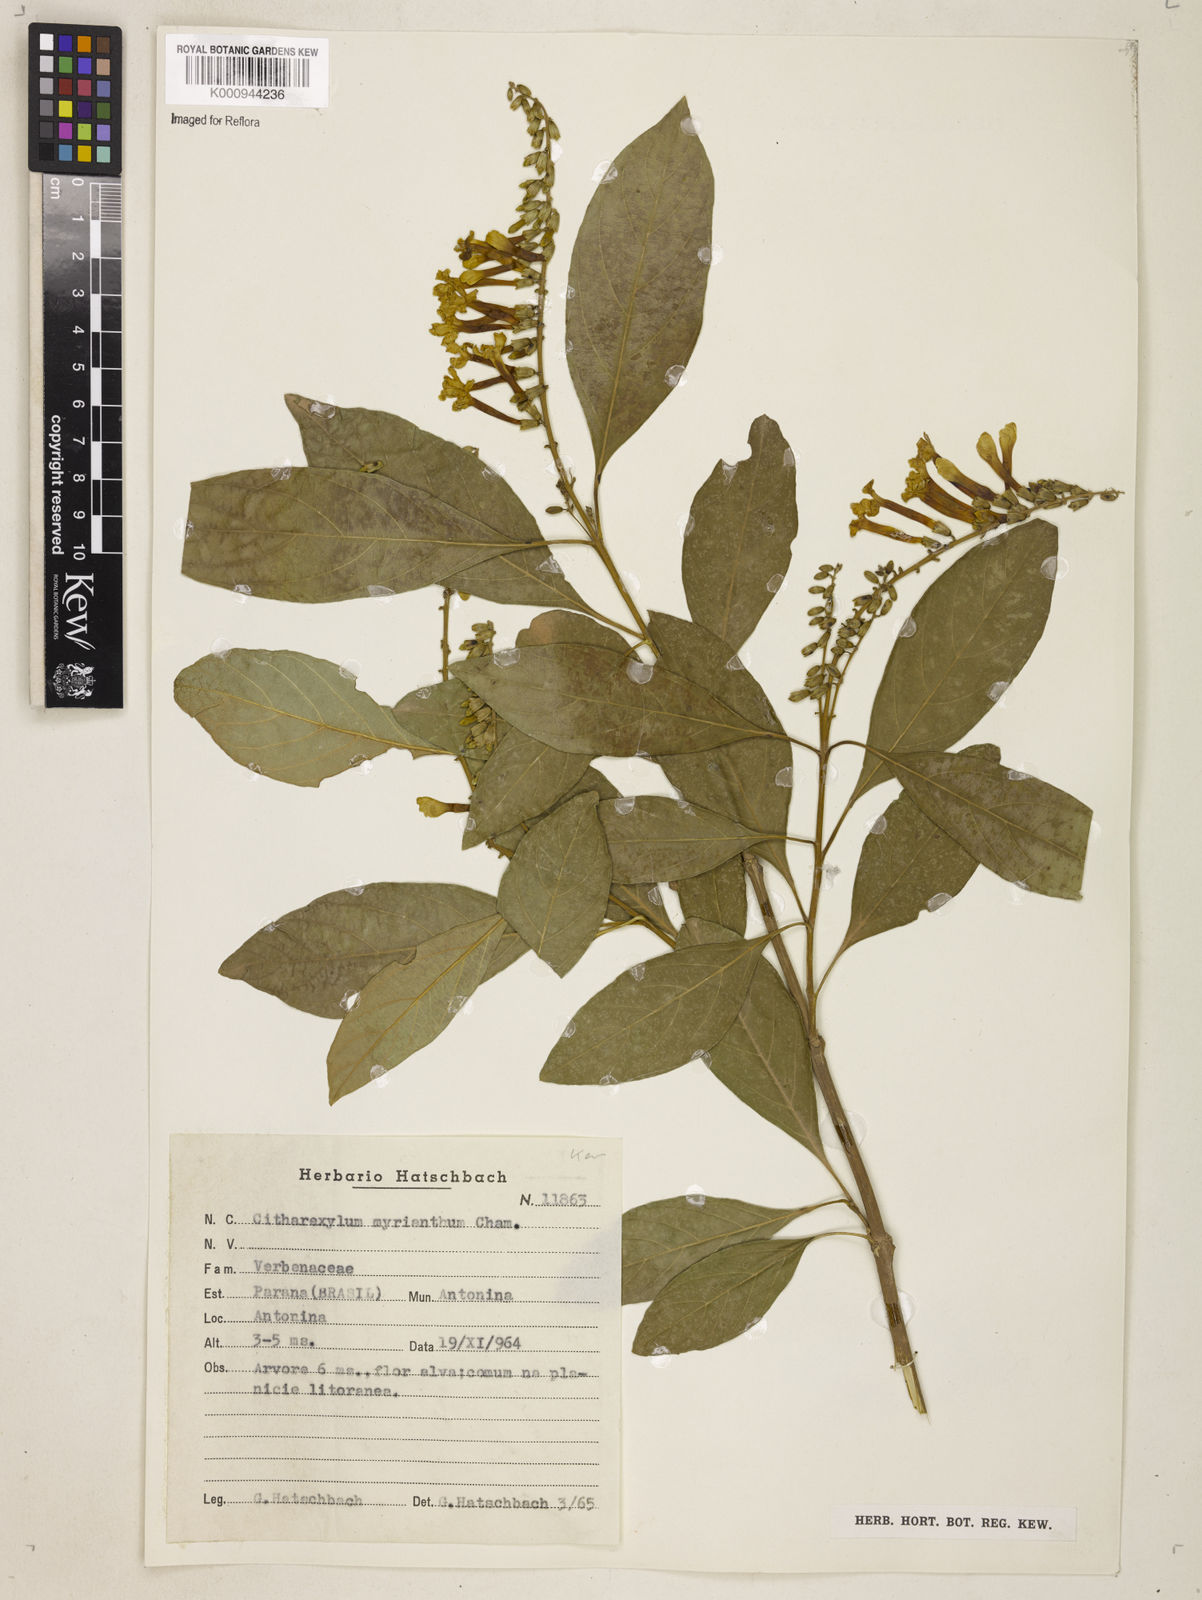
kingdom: Plantae
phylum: Tracheophyta
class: Magnoliopsida
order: Lamiales
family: Verbenaceae
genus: Citharexylum
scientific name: Citharexylum myrianthum
